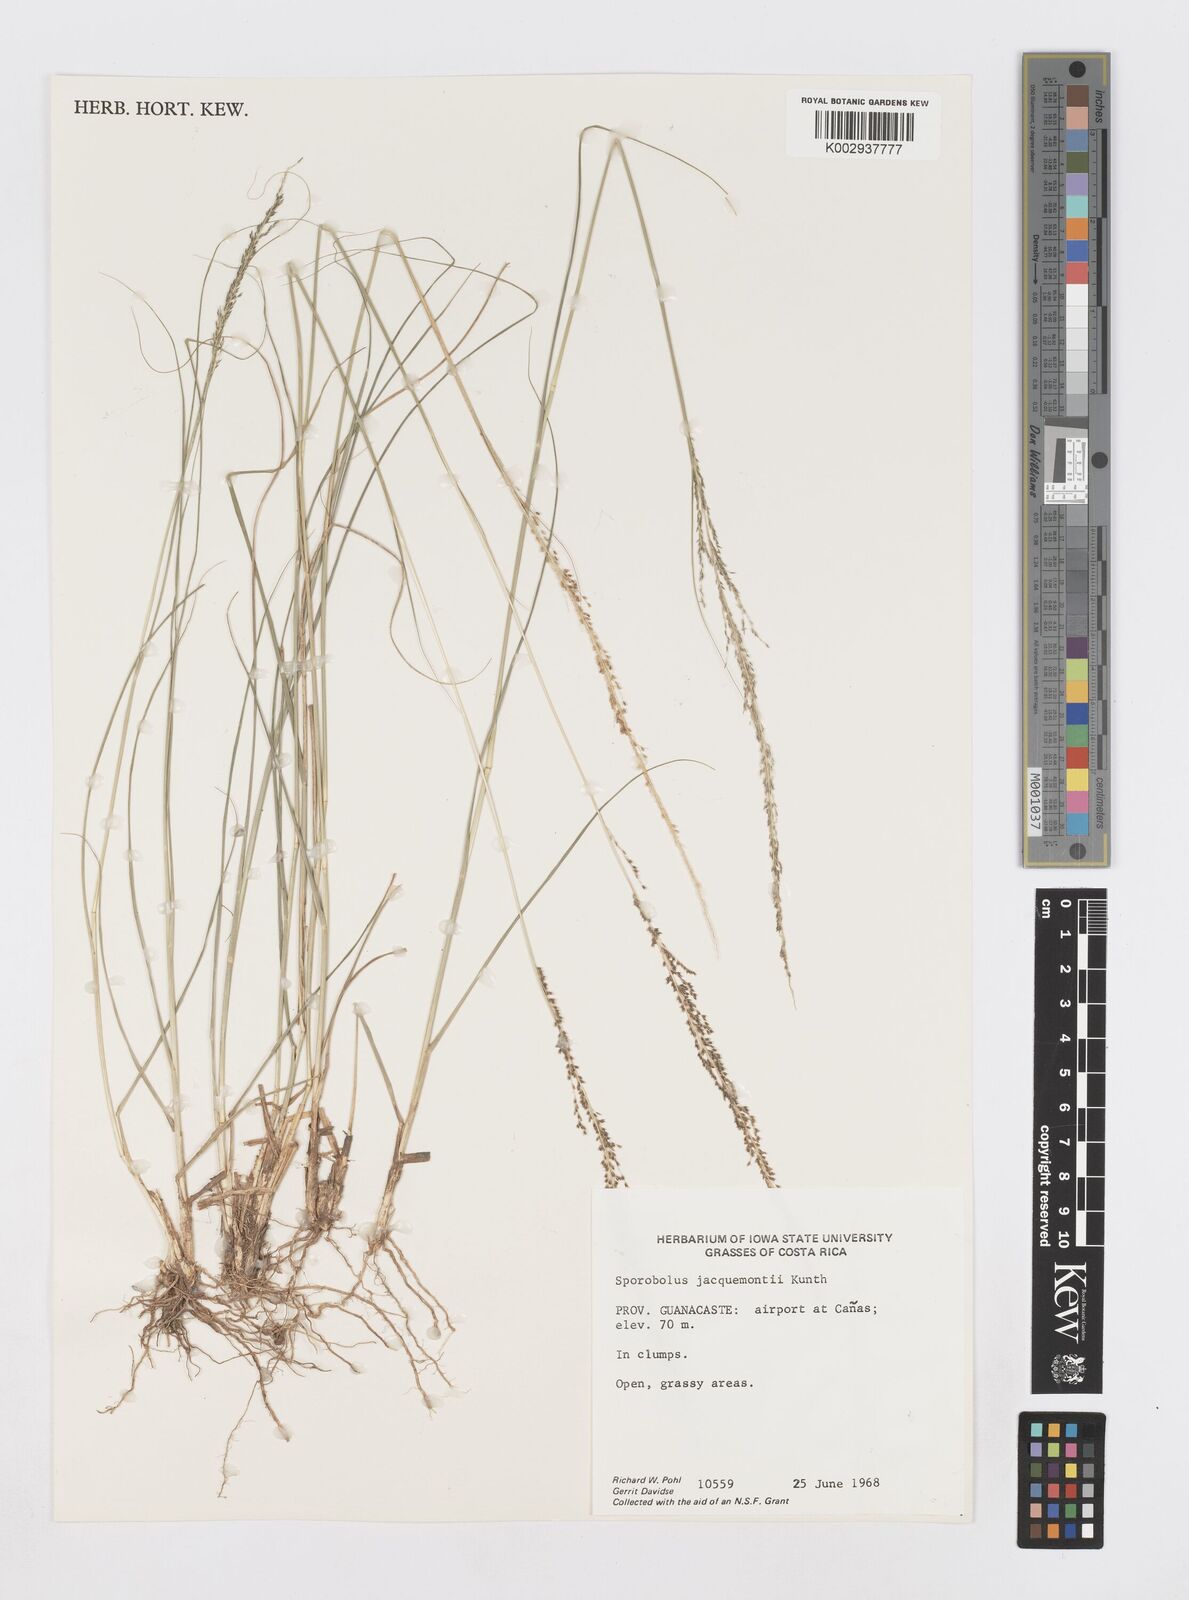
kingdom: Plantae
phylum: Tracheophyta
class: Liliopsida
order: Poales
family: Poaceae
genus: Sporobolus
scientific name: Sporobolus pyramidalis
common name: West indian dropseed
